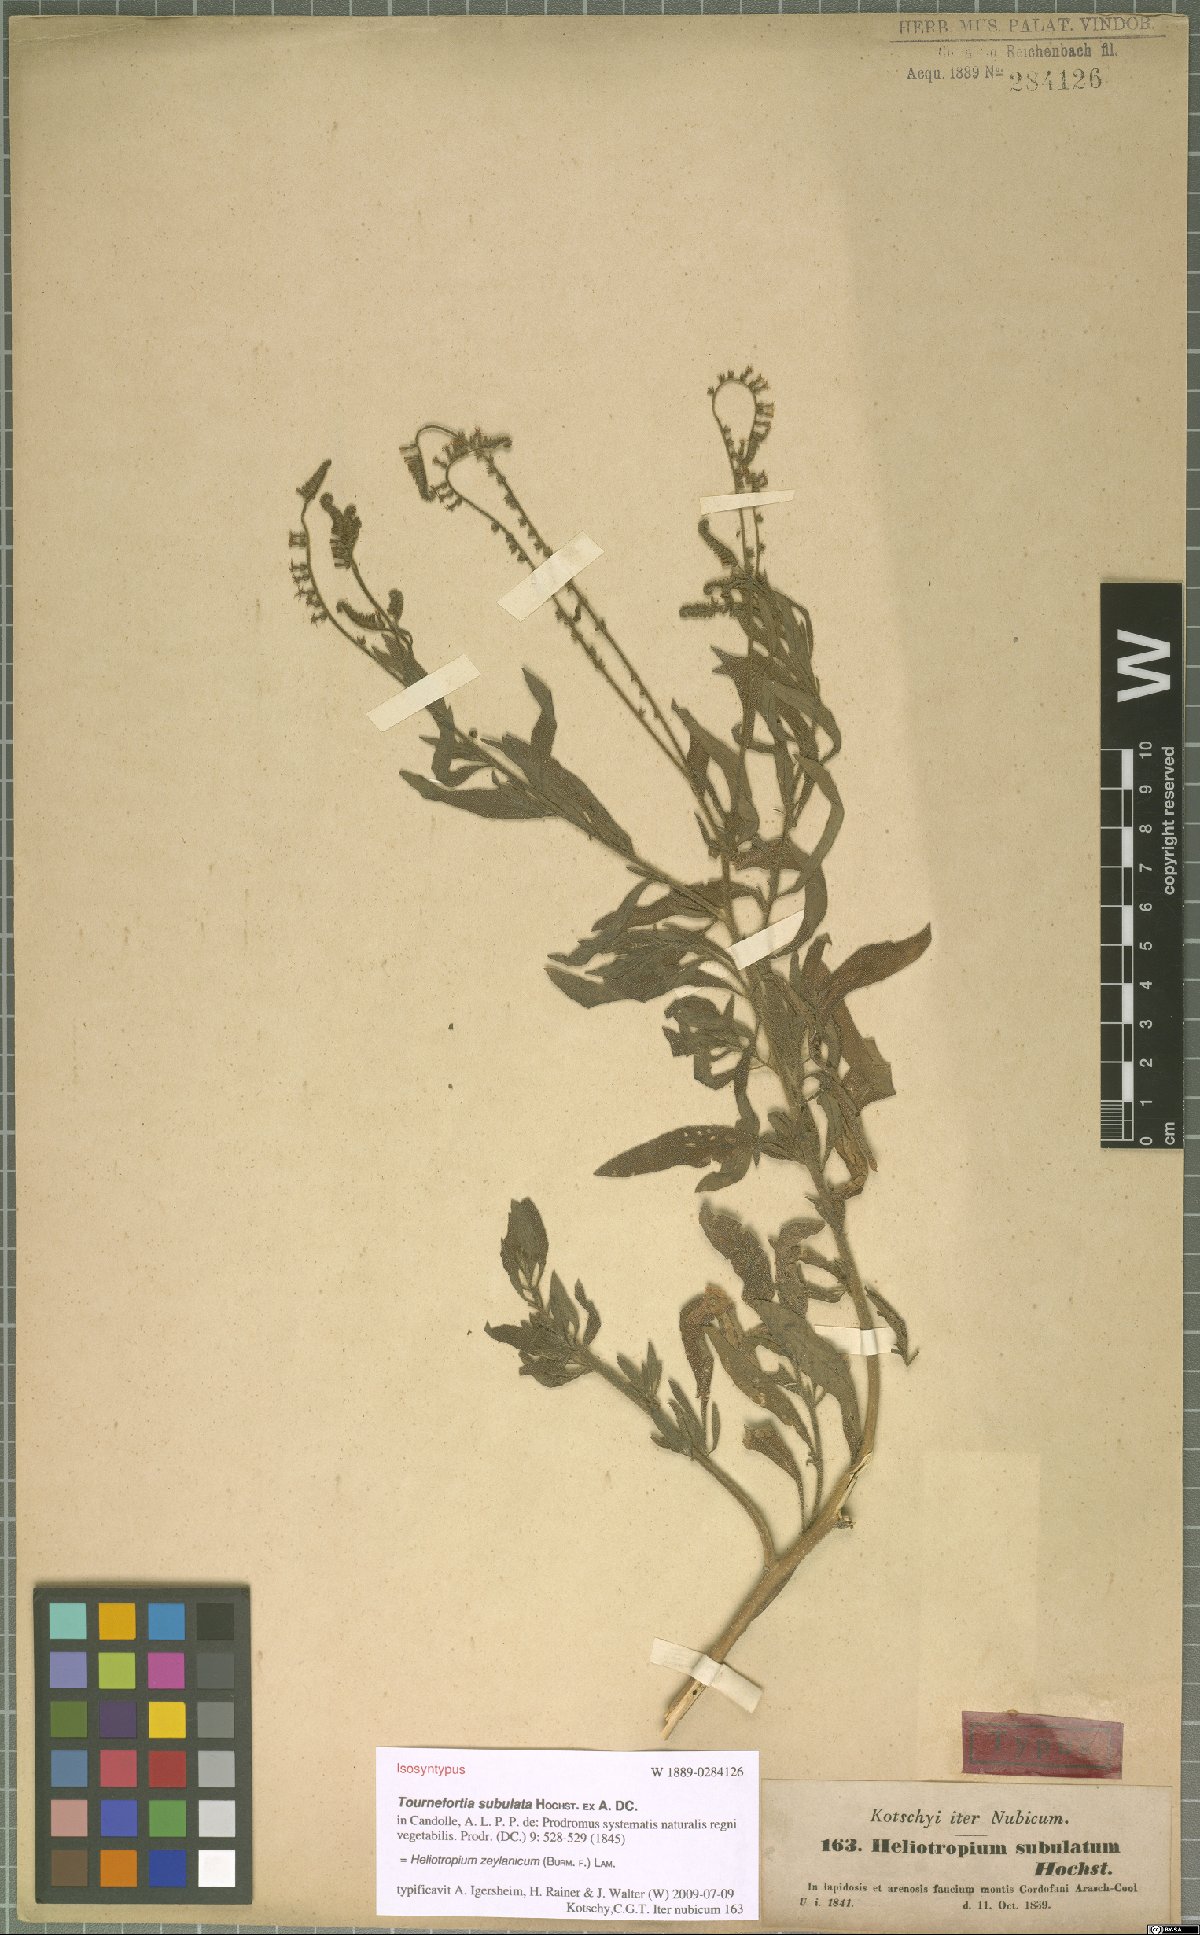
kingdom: Plantae
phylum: Tracheophyta
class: Magnoliopsida
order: Boraginales
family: Heliotropiaceae
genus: Heliotropium
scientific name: Heliotropium zeylanicum
